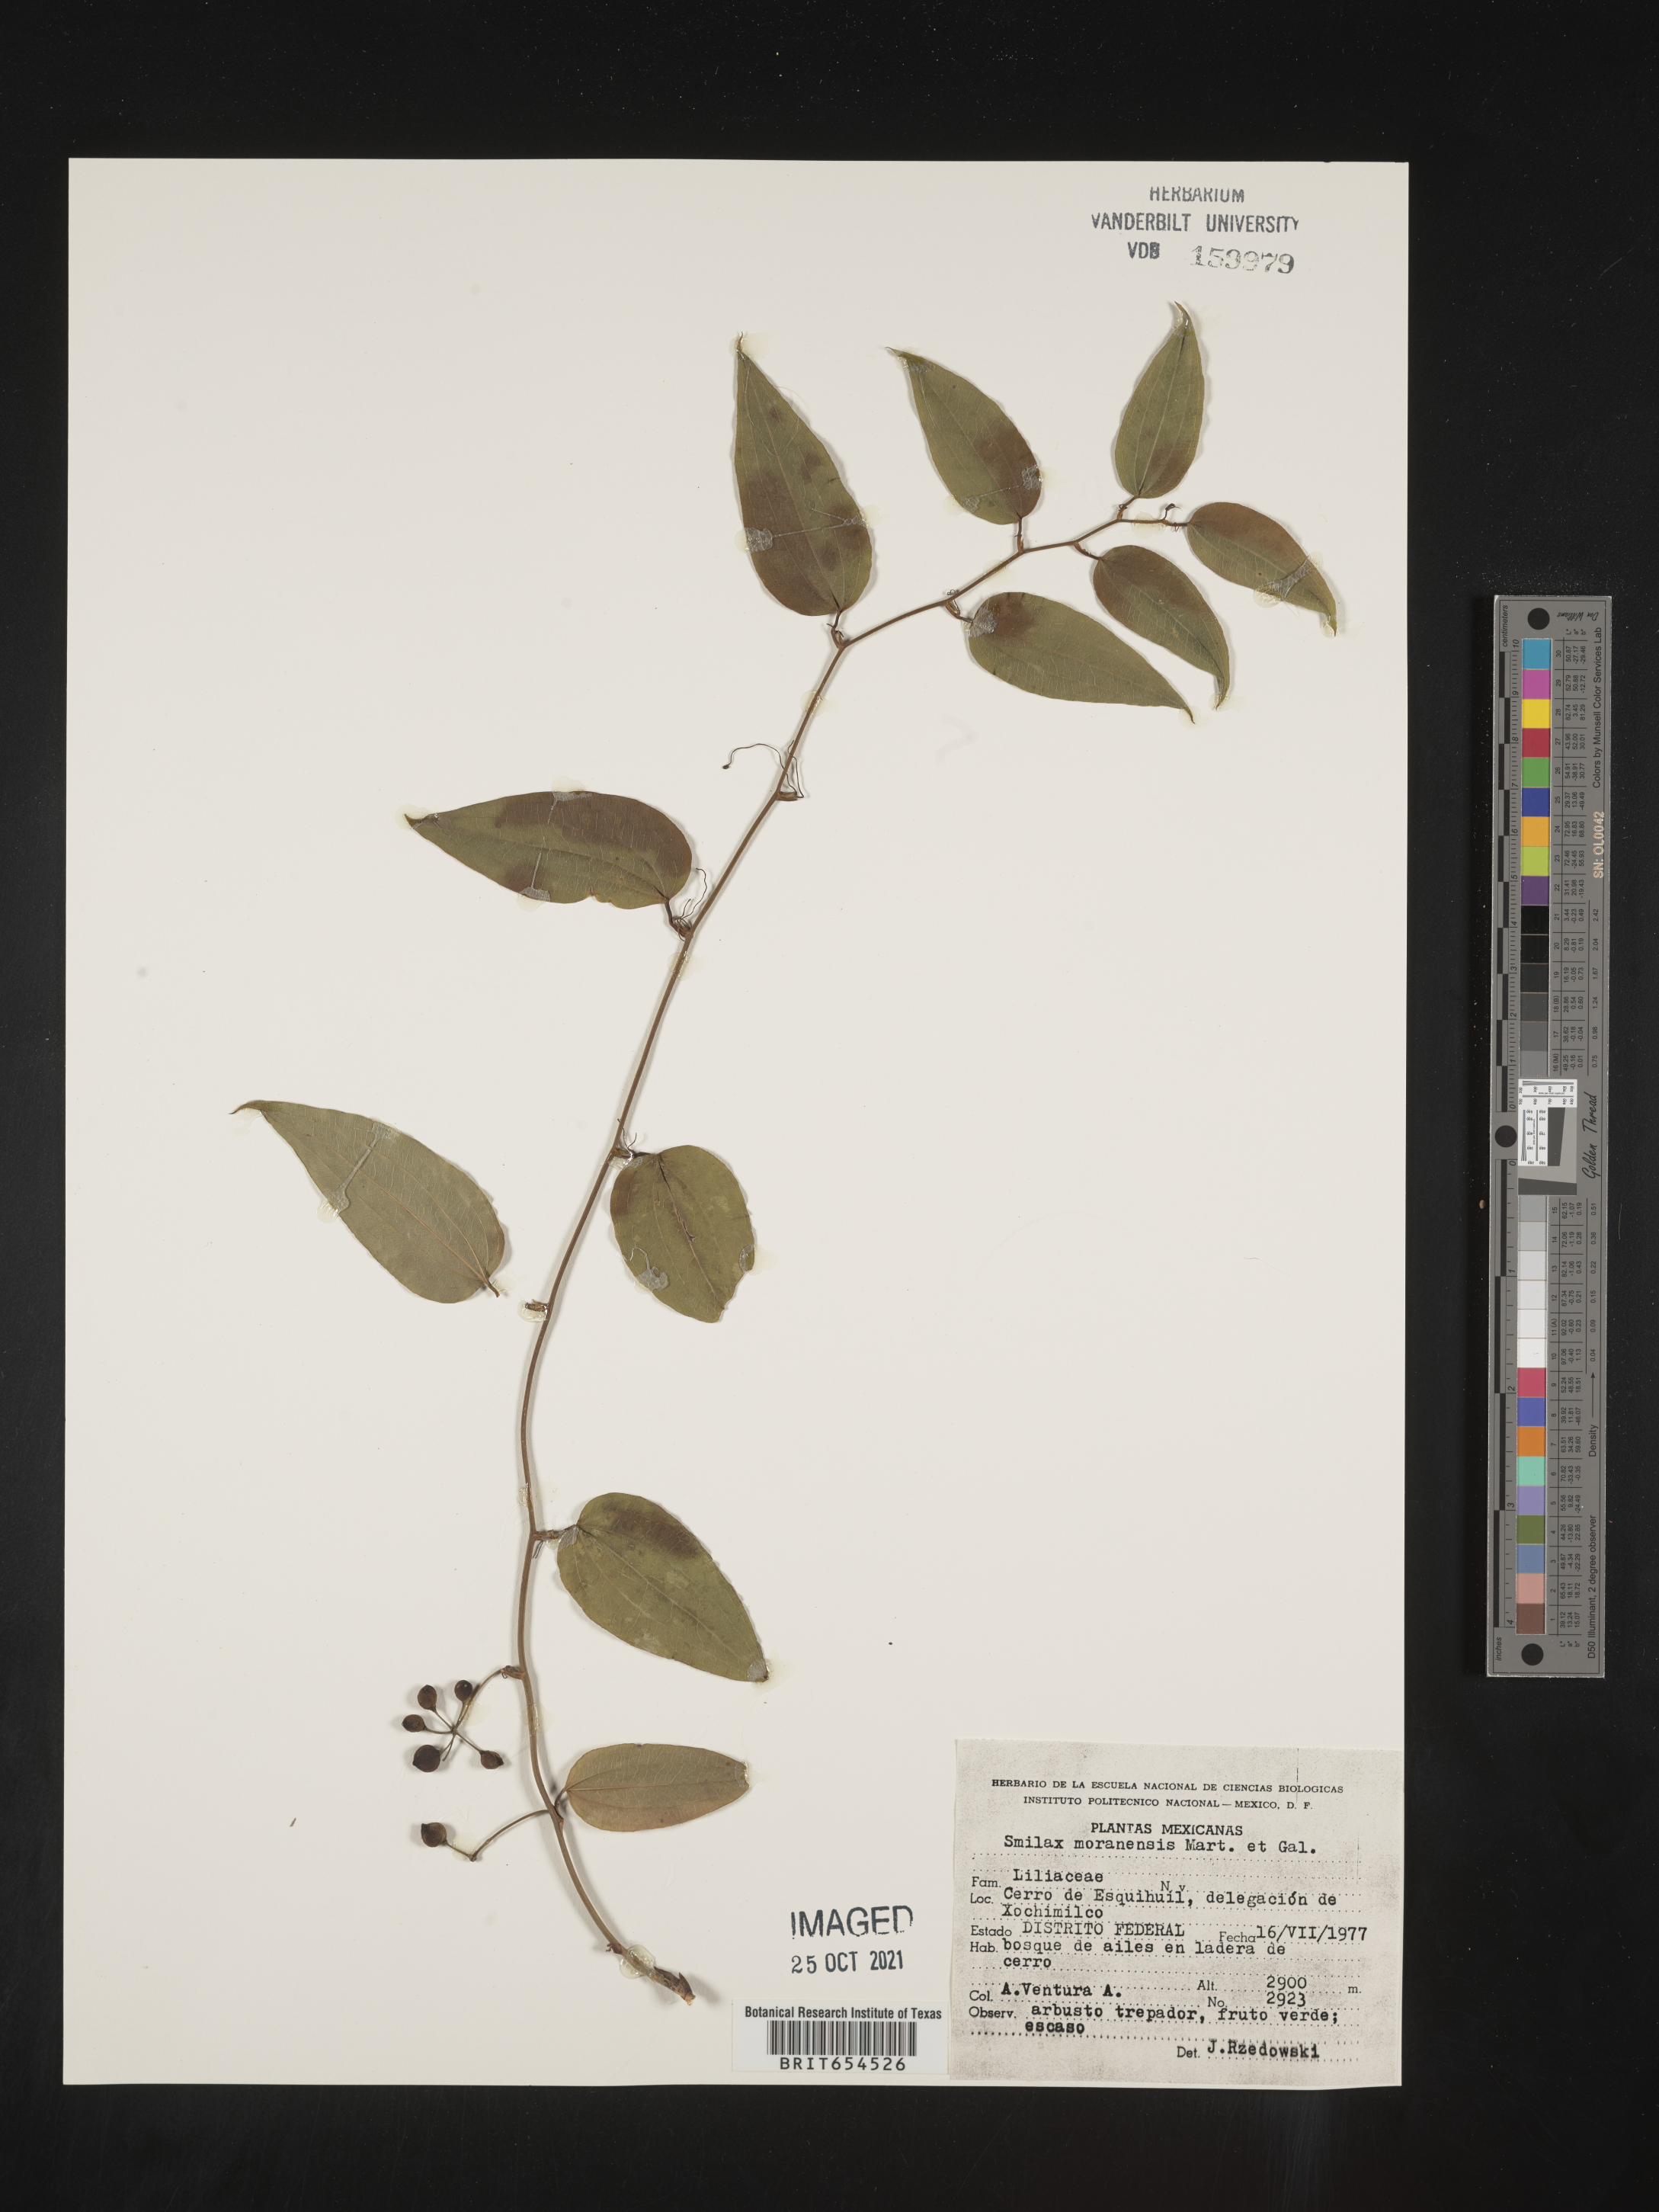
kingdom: Plantae
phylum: Tracheophyta
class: Liliopsida
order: Liliales
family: Smilacaceae
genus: Smilax
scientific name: Smilax
